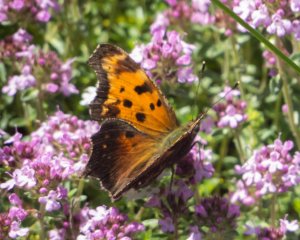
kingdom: Animalia
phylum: Arthropoda
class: Insecta
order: Lepidoptera
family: Nymphalidae
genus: Polygonia
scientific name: Polygonia progne
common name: Gray Comma
